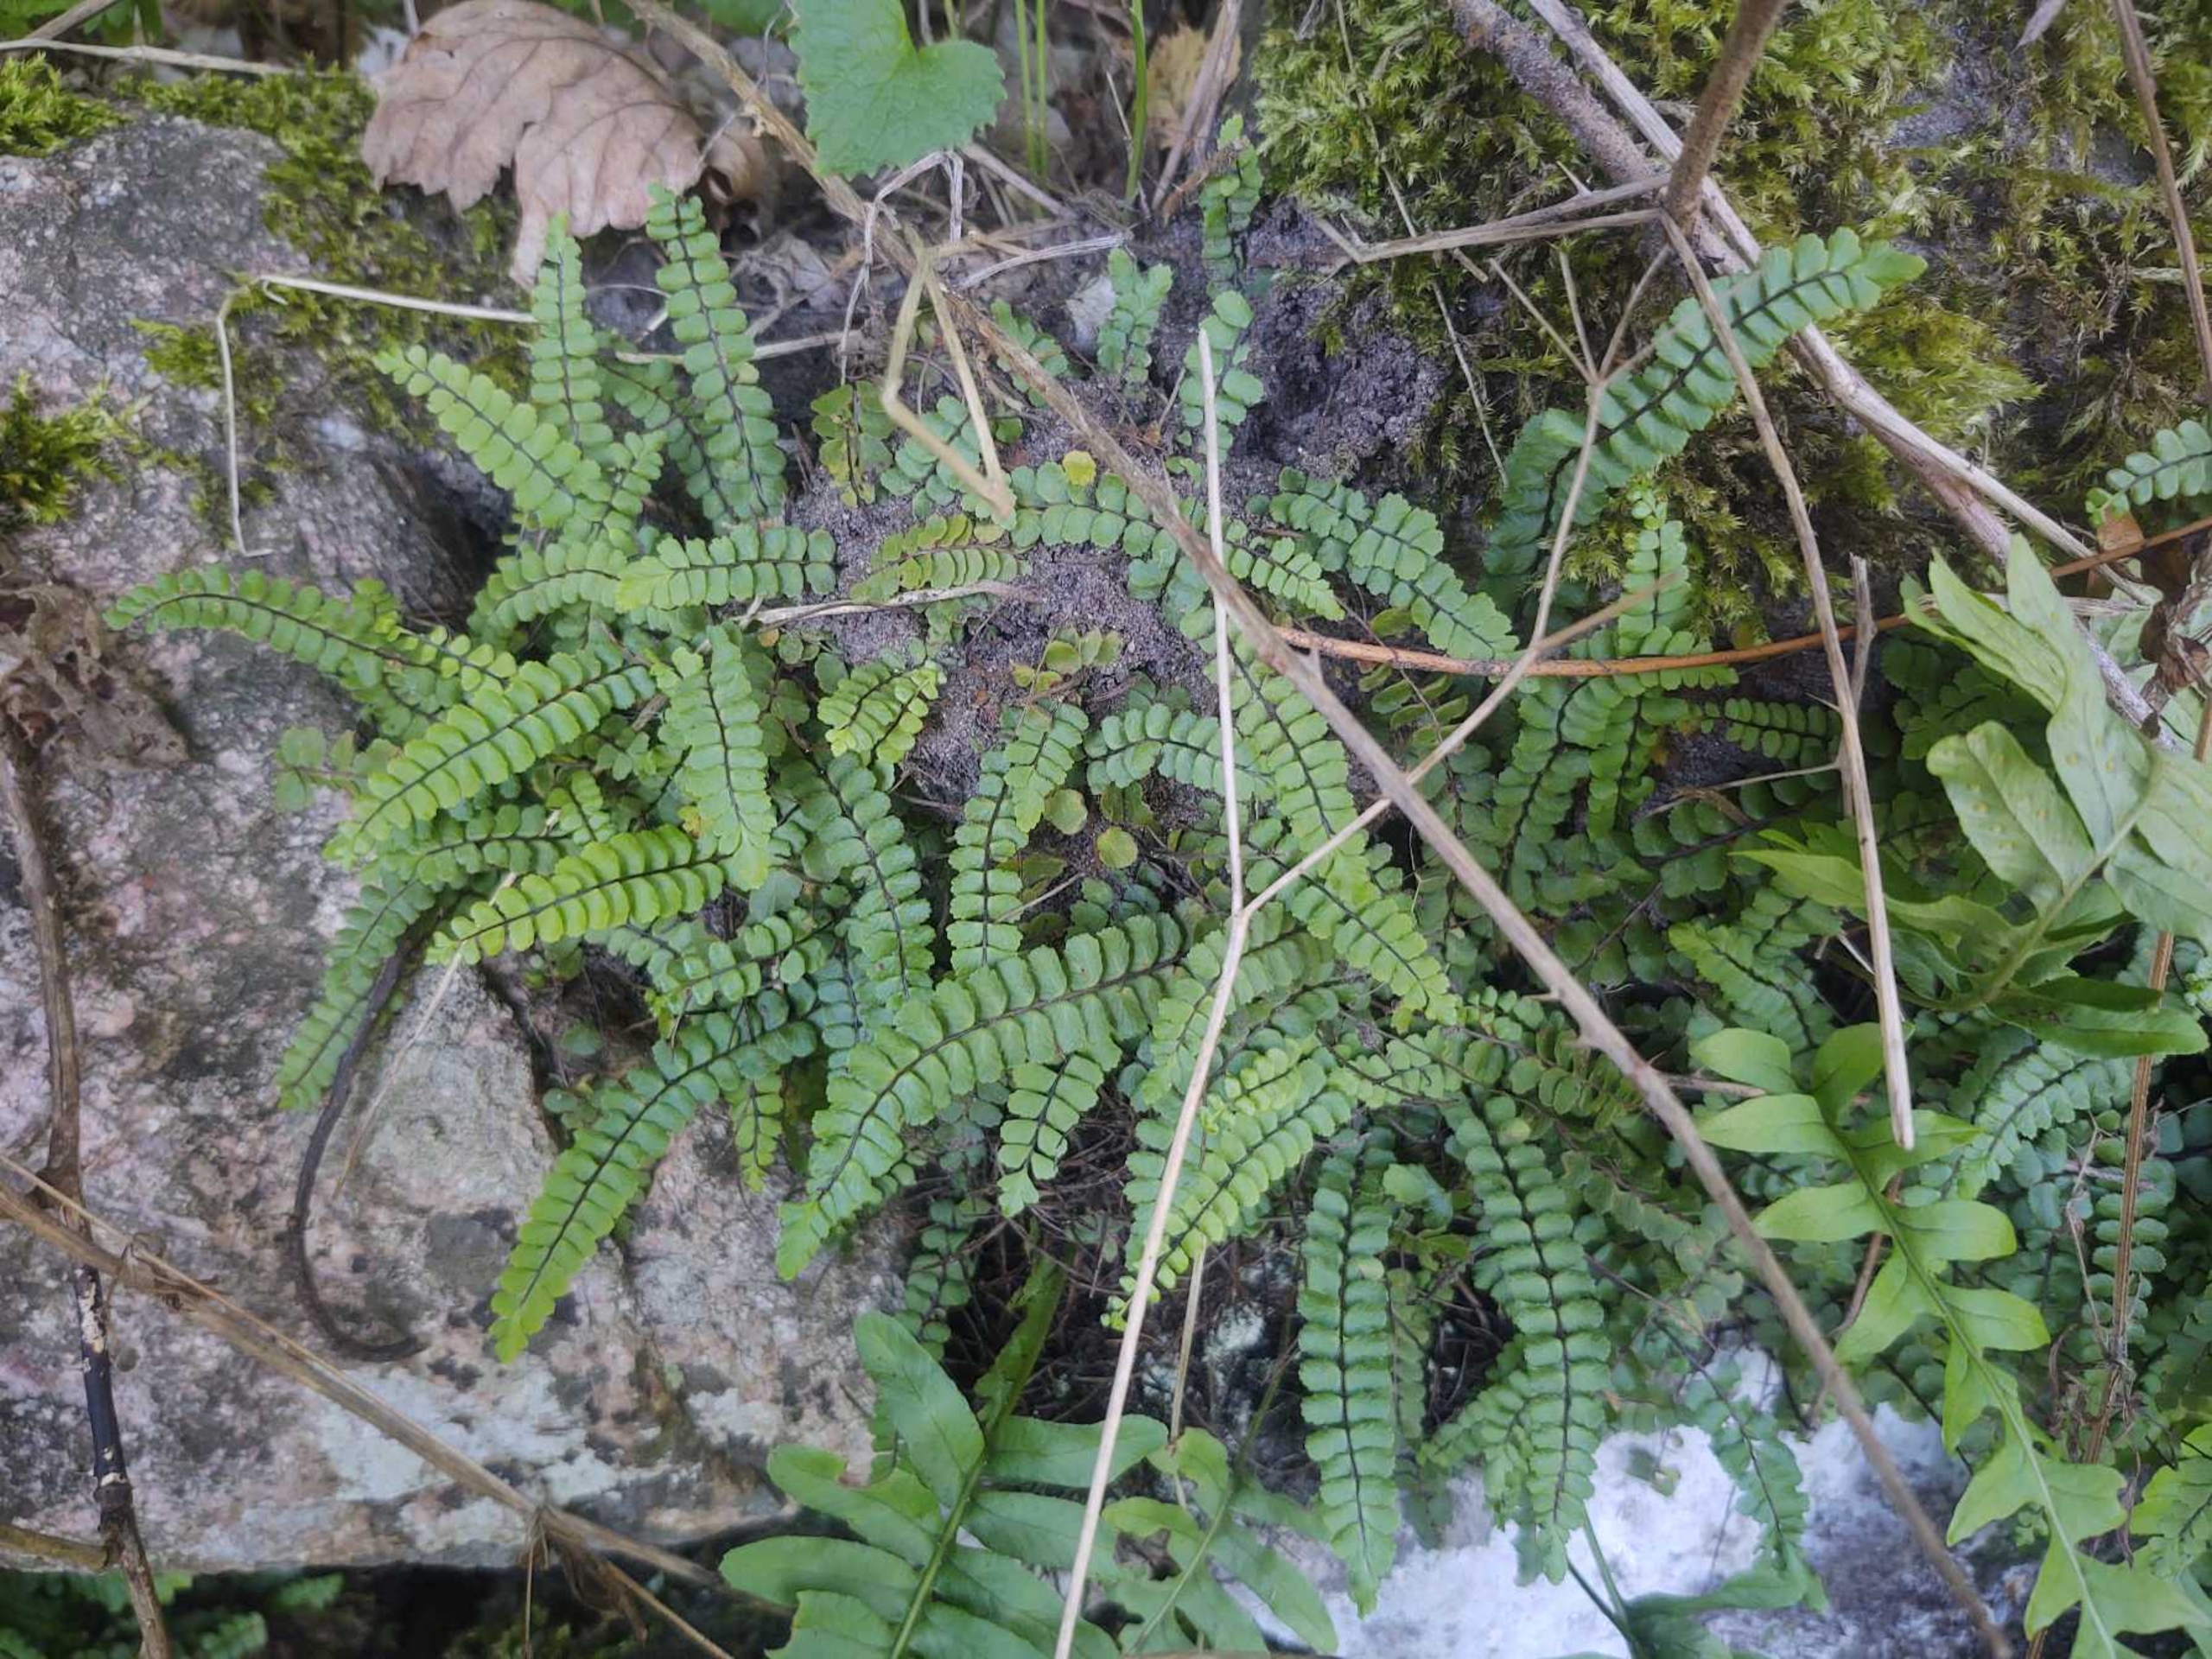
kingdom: Plantae
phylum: Tracheophyta
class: Polypodiopsida
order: Polypodiales
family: Aspleniaceae
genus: Asplenium
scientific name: Asplenium quadrivalens
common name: Kalk-radeløv
